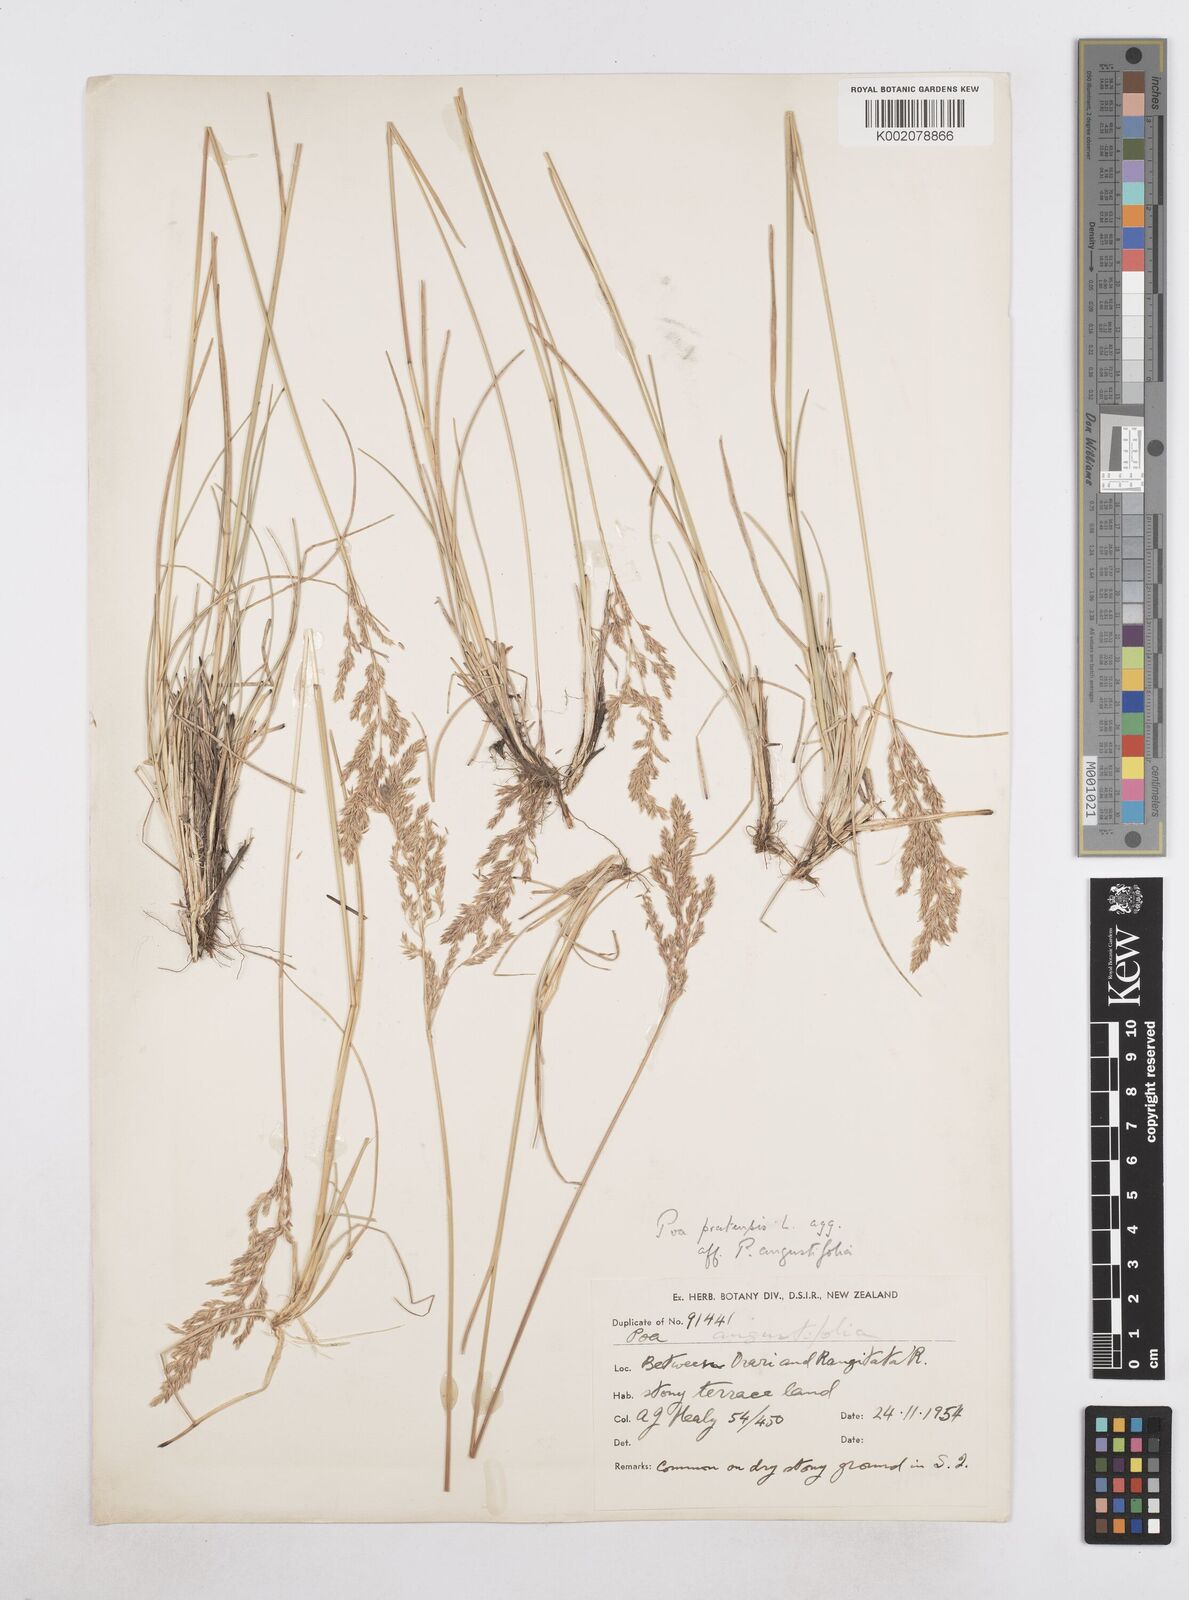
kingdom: Plantae
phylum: Tracheophyta
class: Liliopsida
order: Poales
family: Poaceae
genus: Poa
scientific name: Poa angustifolia
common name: Narrow-leaved meadow-grass
